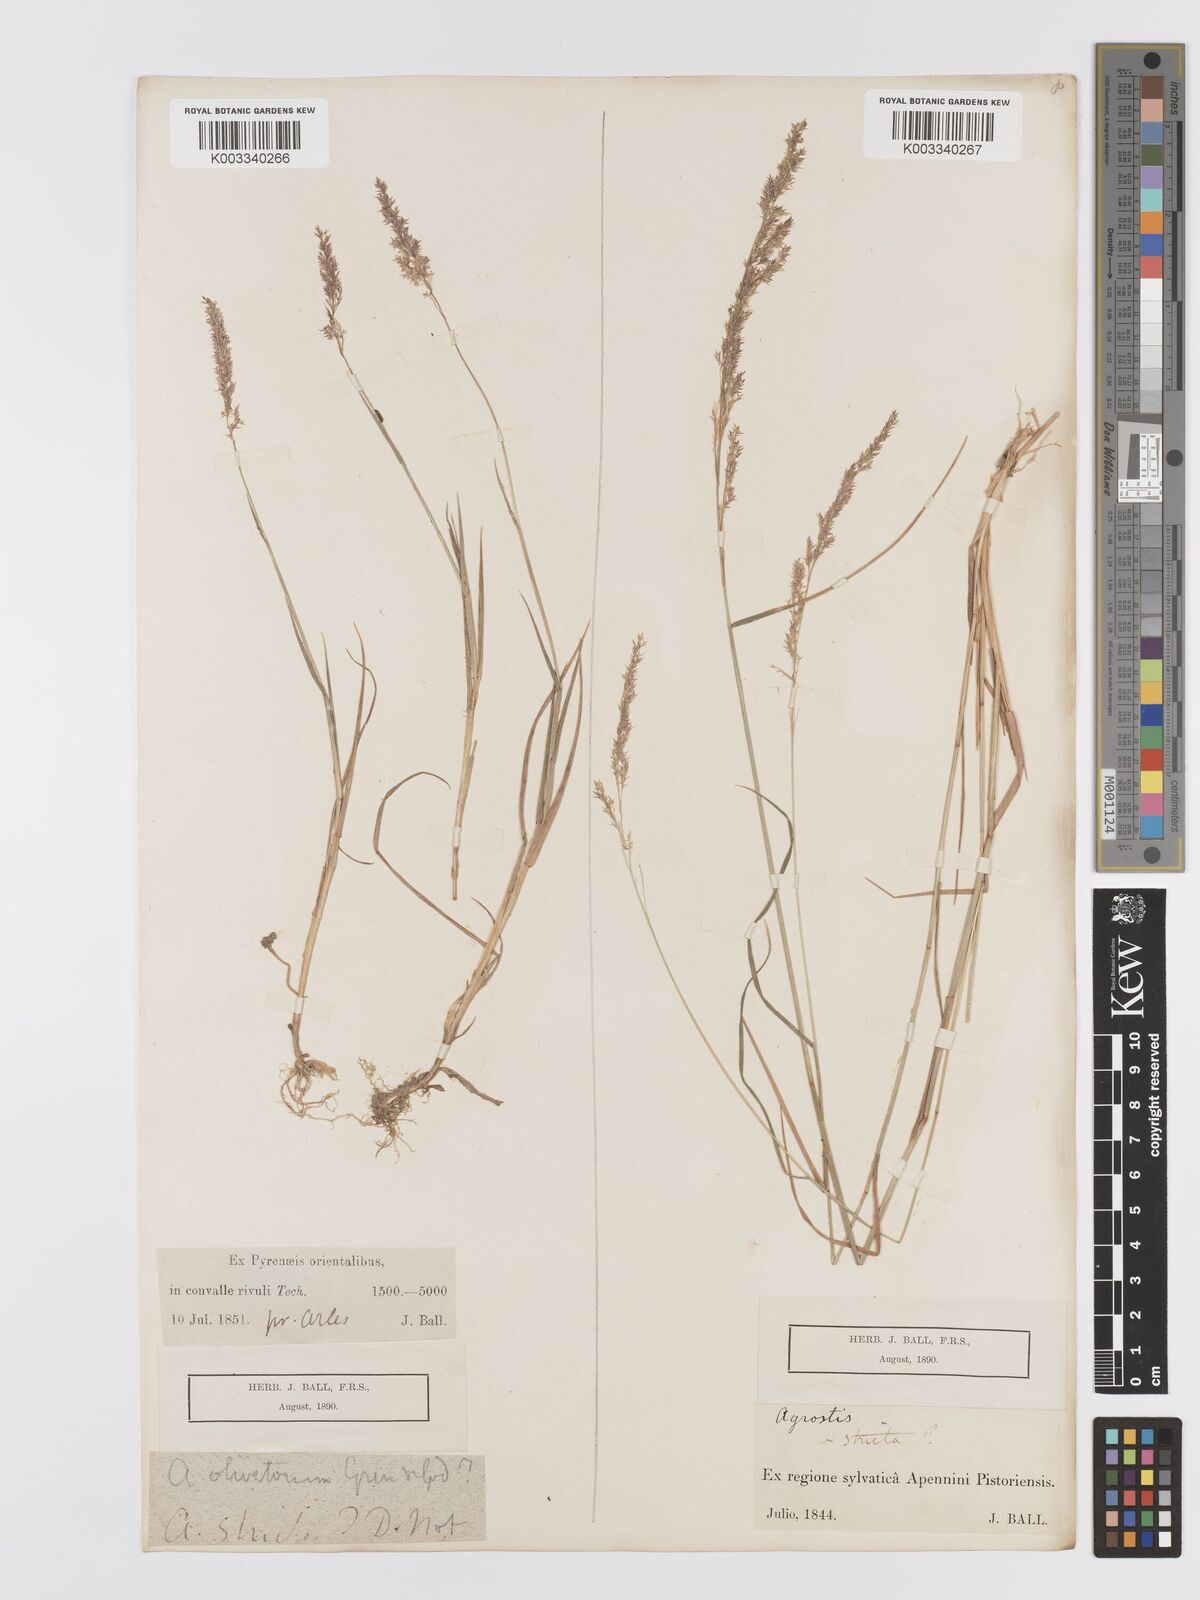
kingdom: Plantae
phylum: Tracheophyta
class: Liliopsida
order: Poales
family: Poaceae
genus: Agrostis
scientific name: Agrostis pourretii
